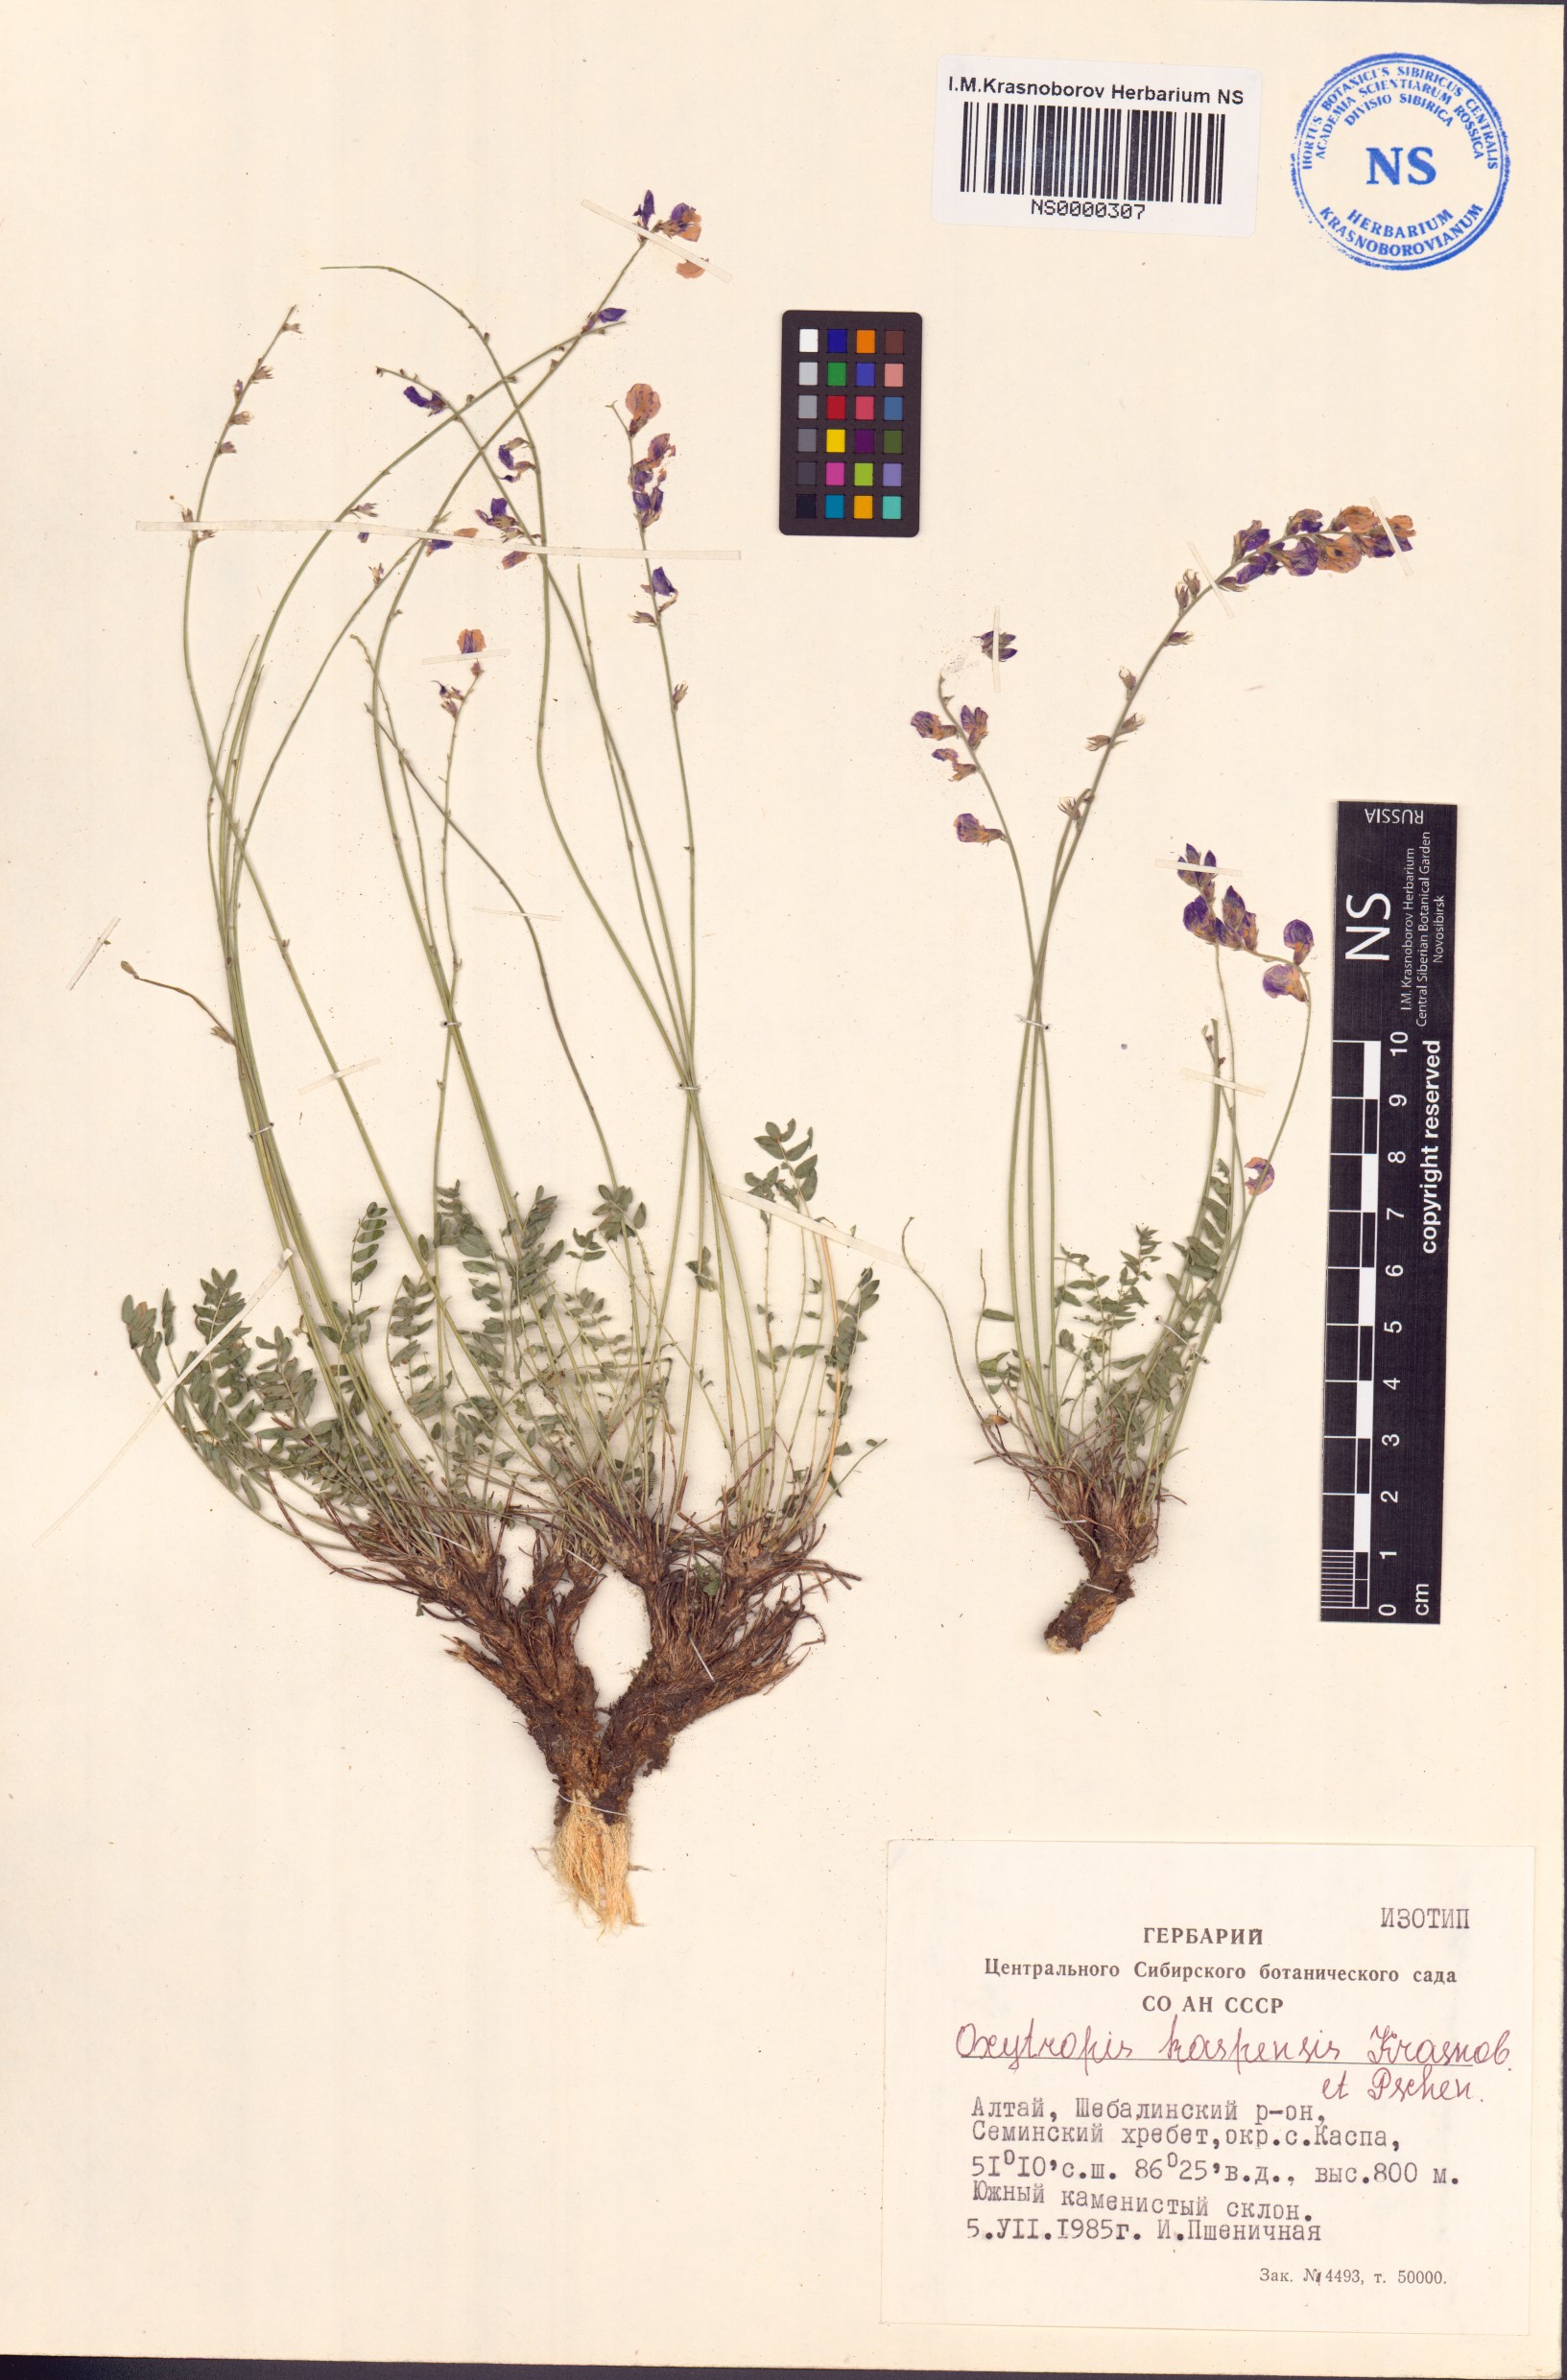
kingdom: Plantae
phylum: Tracheophyta
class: Magnoliopsida
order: Fabales
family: Fabaceae
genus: Oxytropis
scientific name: Oxytropis kaspensis
